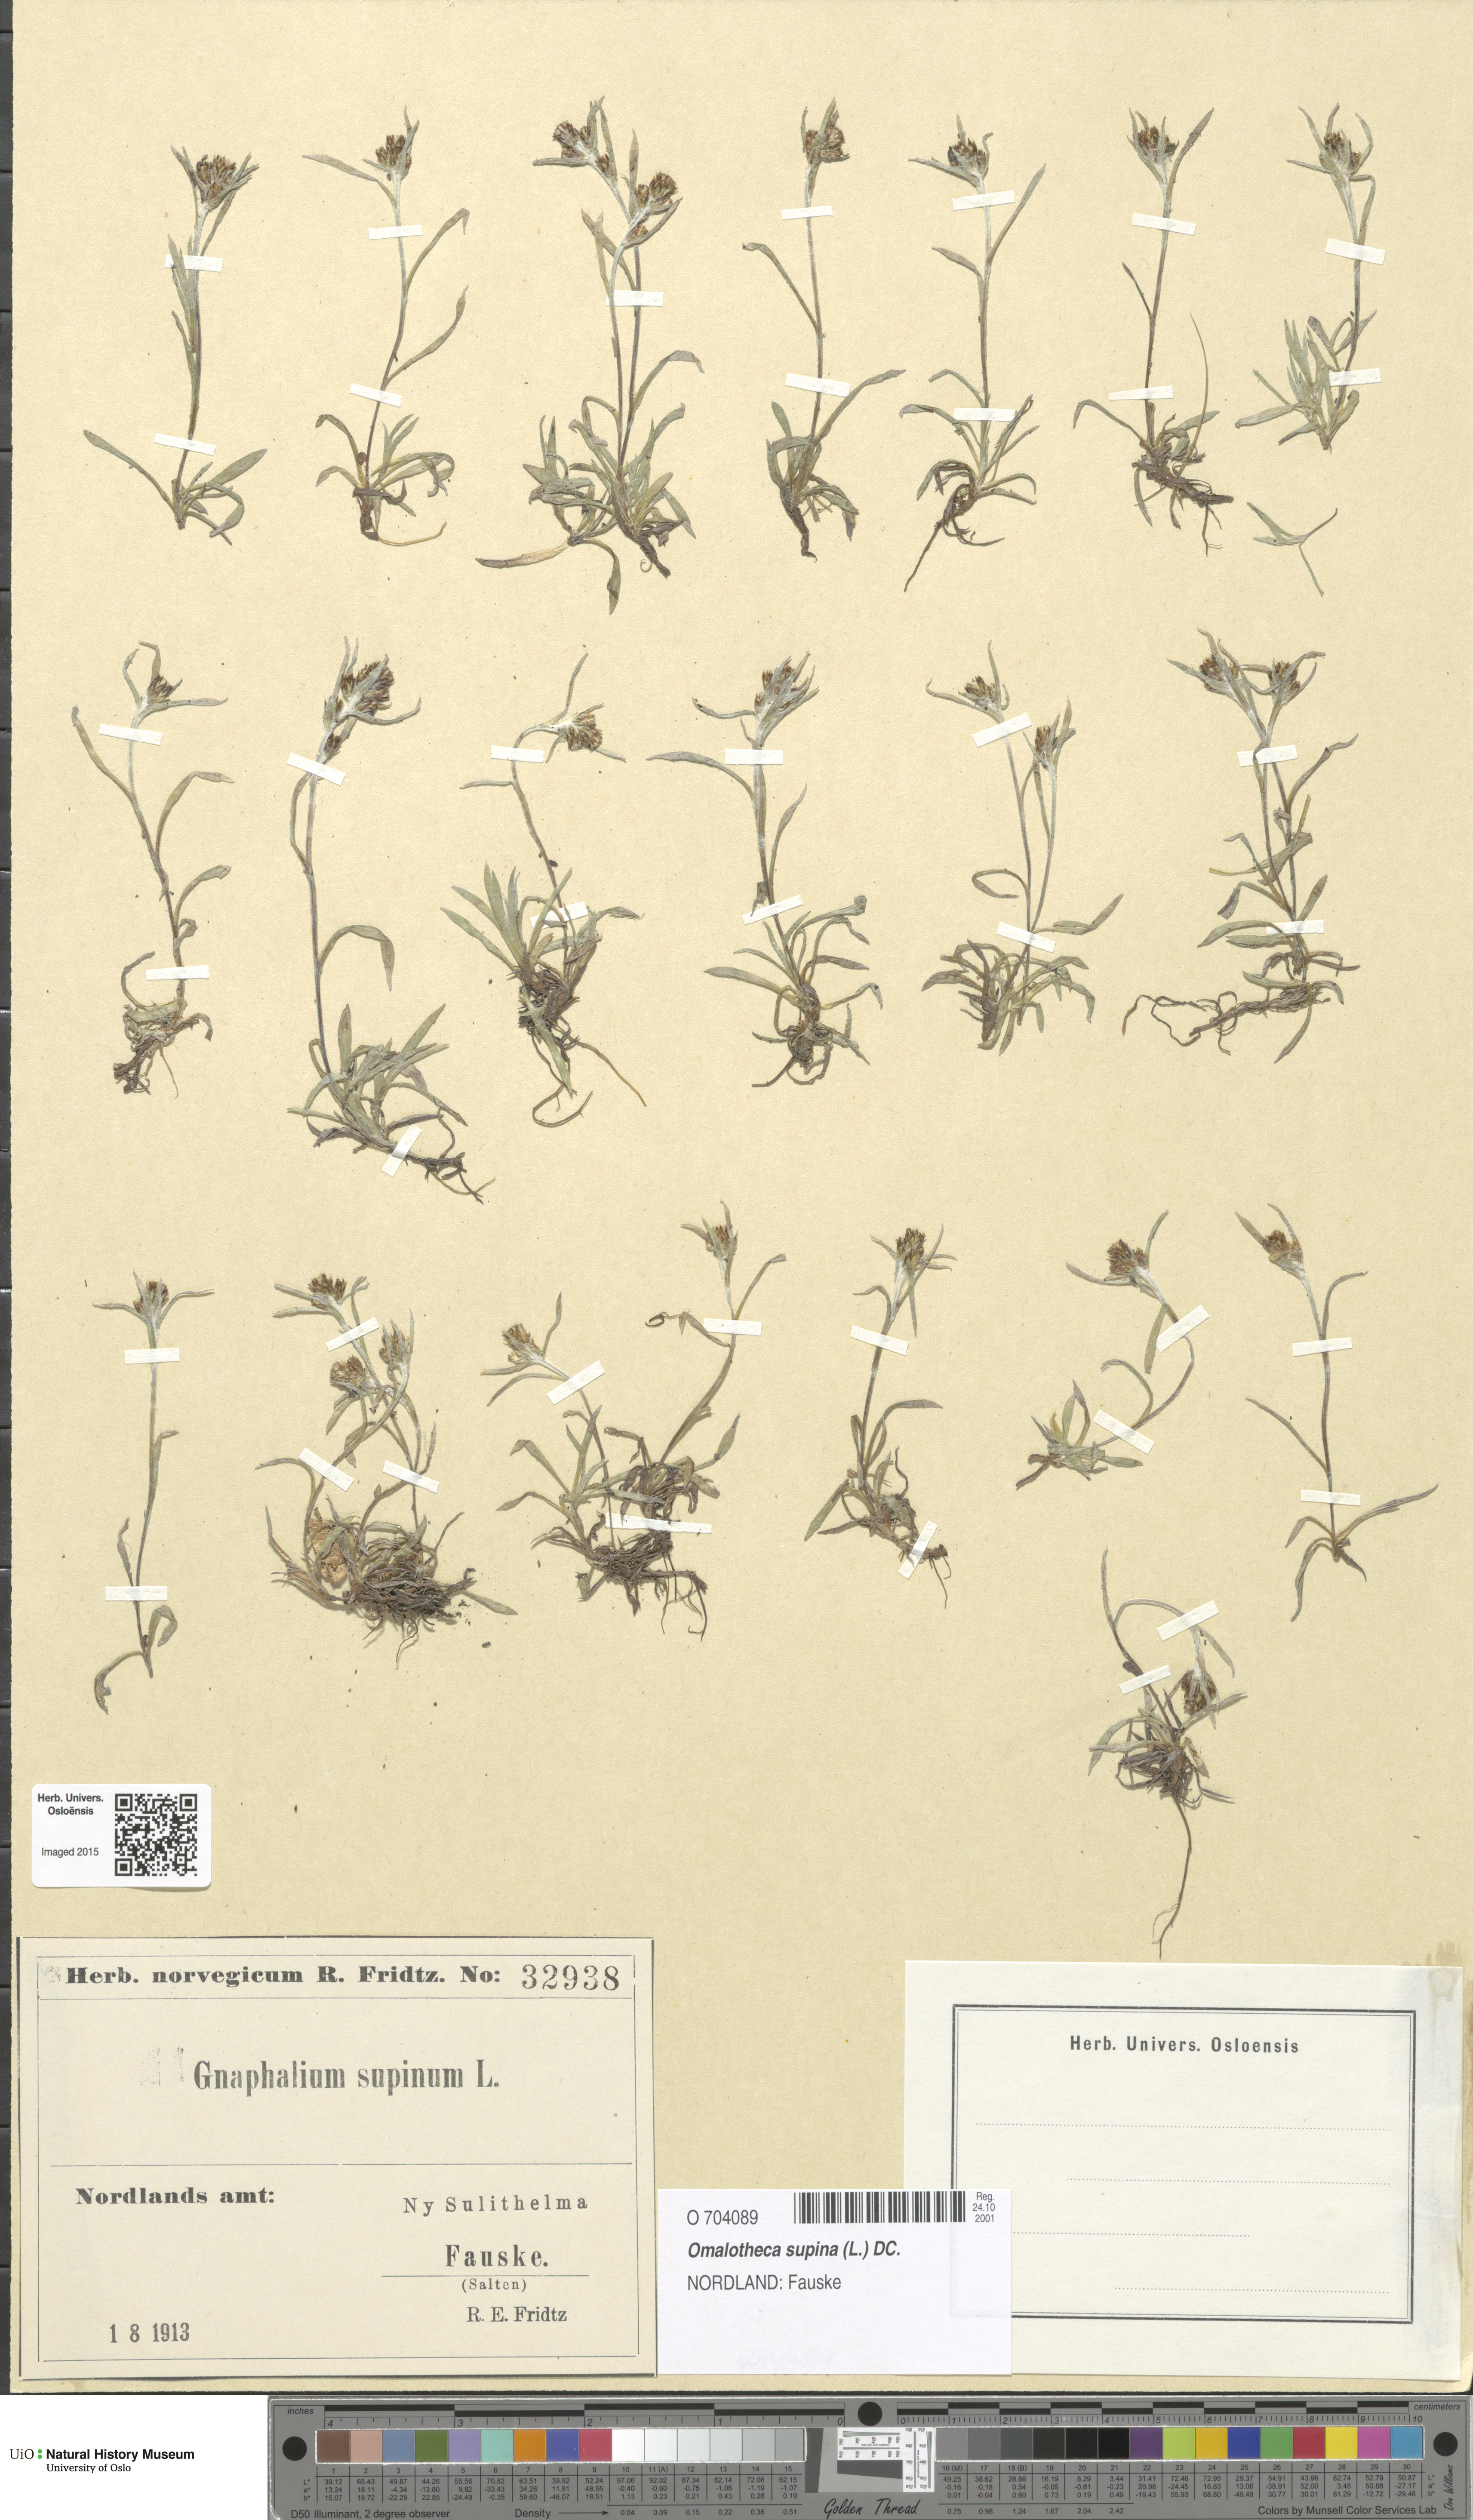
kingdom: Plantae
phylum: Tracheophyta
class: Magnoliopsida
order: Asterales
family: Asteraceae
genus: Omalotheca
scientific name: Omalotheca supina
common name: Alpine arctic-cudweed
